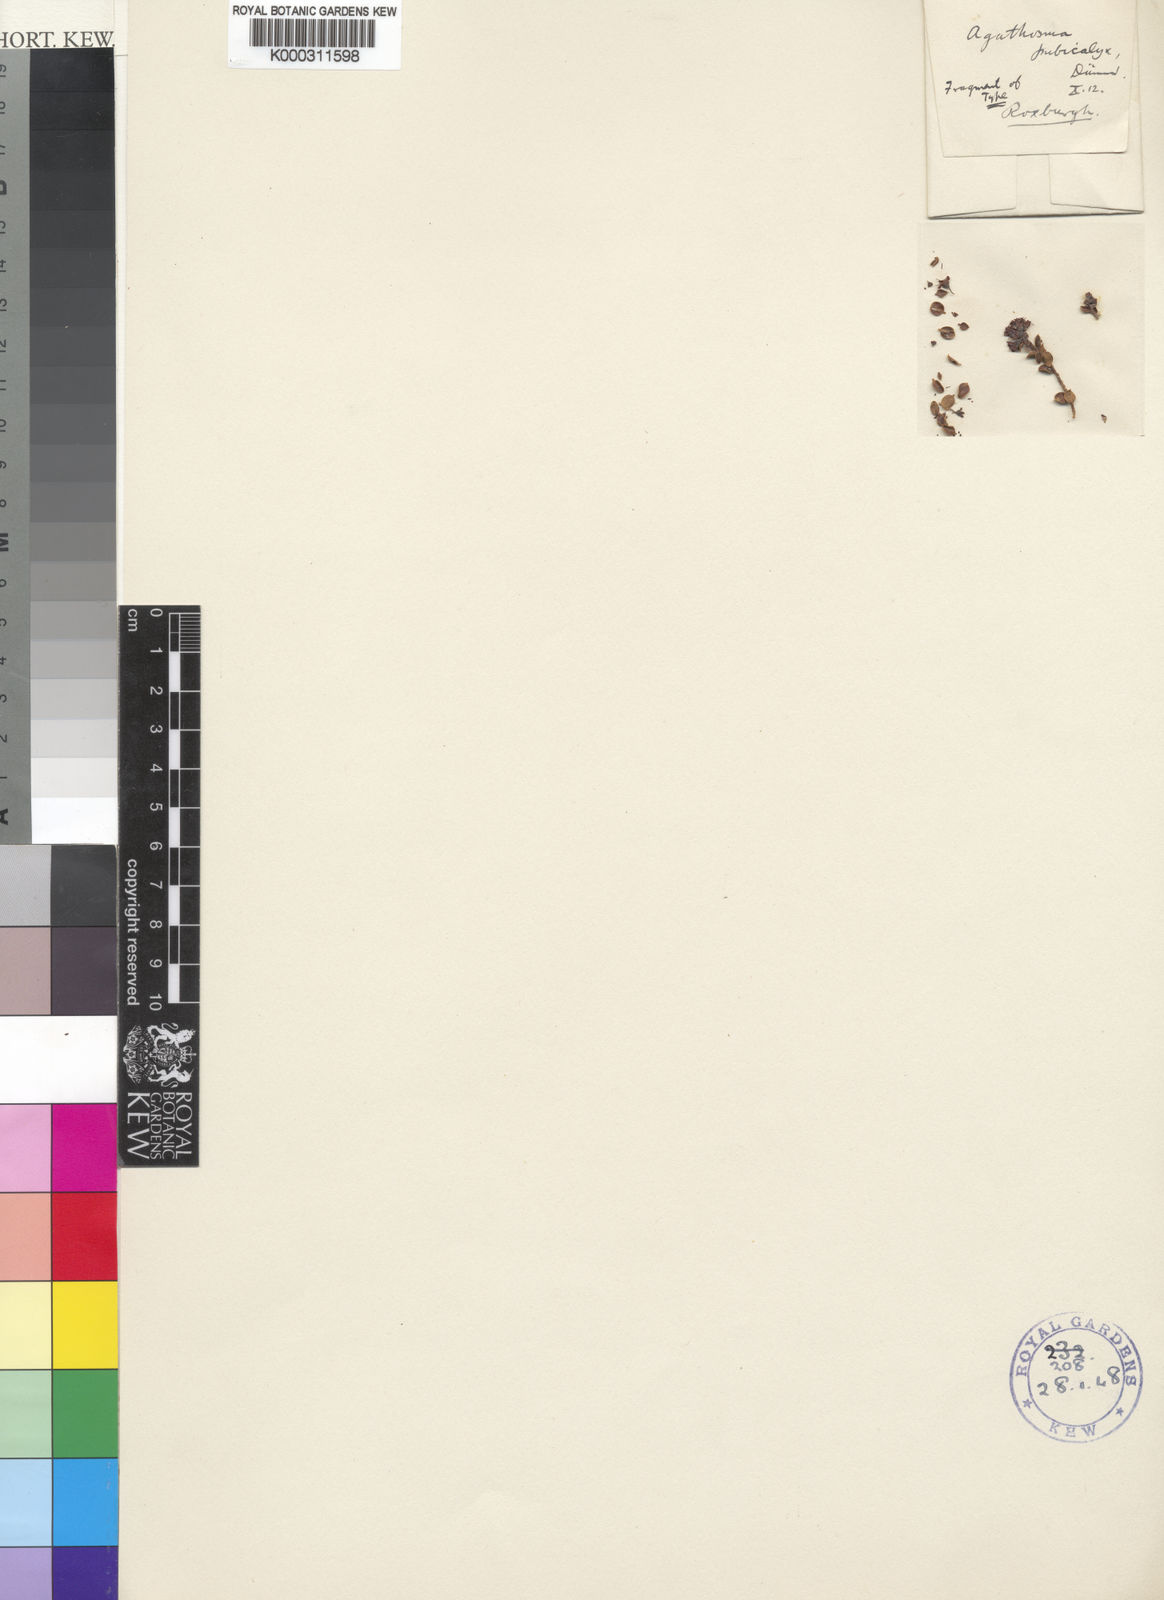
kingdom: Plantae
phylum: Tracheophyta
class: Magnoliopsida
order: Sapindales
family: Rutaceae
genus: Agathosma
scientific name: Agathosma recurvifolia
